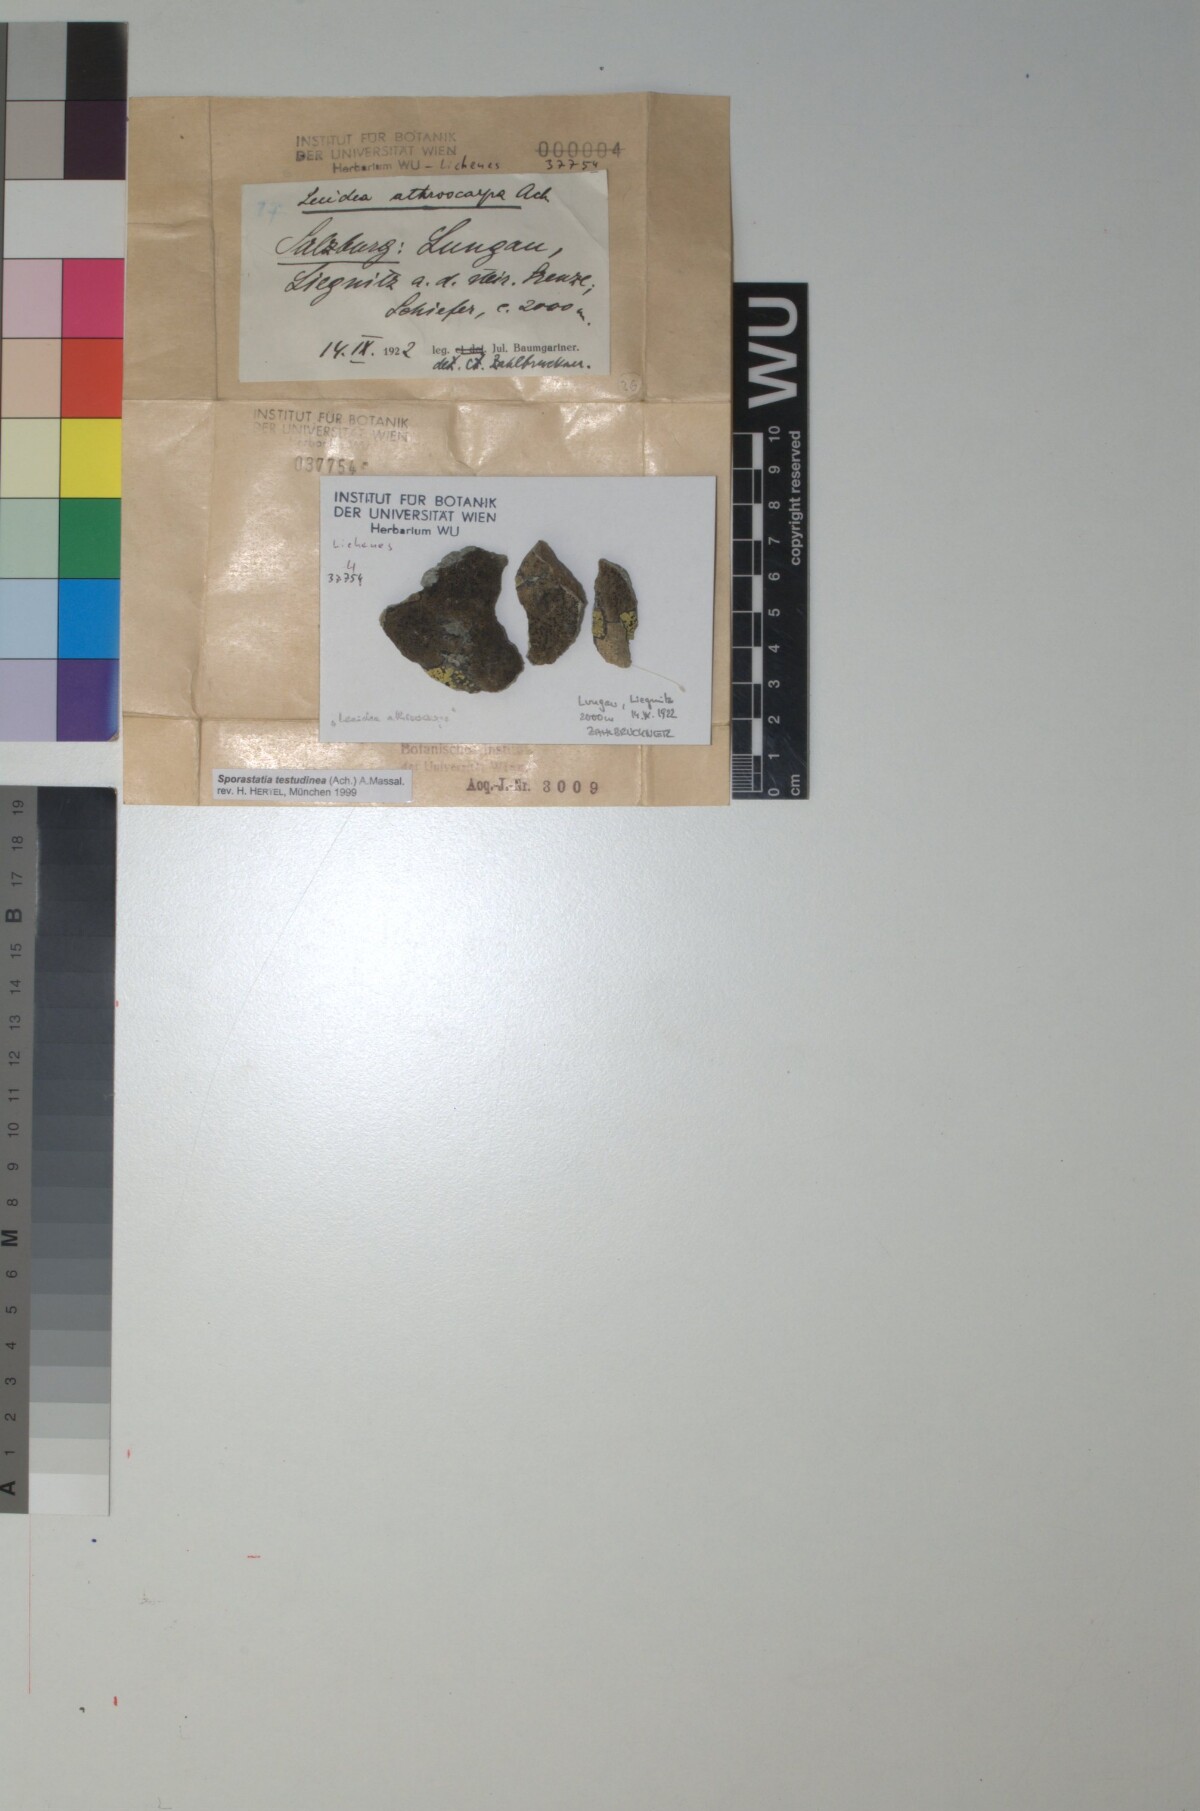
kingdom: Fungi
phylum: Ascomycota
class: Lecanoromycetes
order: Rhizocarpales
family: Sporastatiaceae
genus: Sporastatia
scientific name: Sporastatia testudinea
